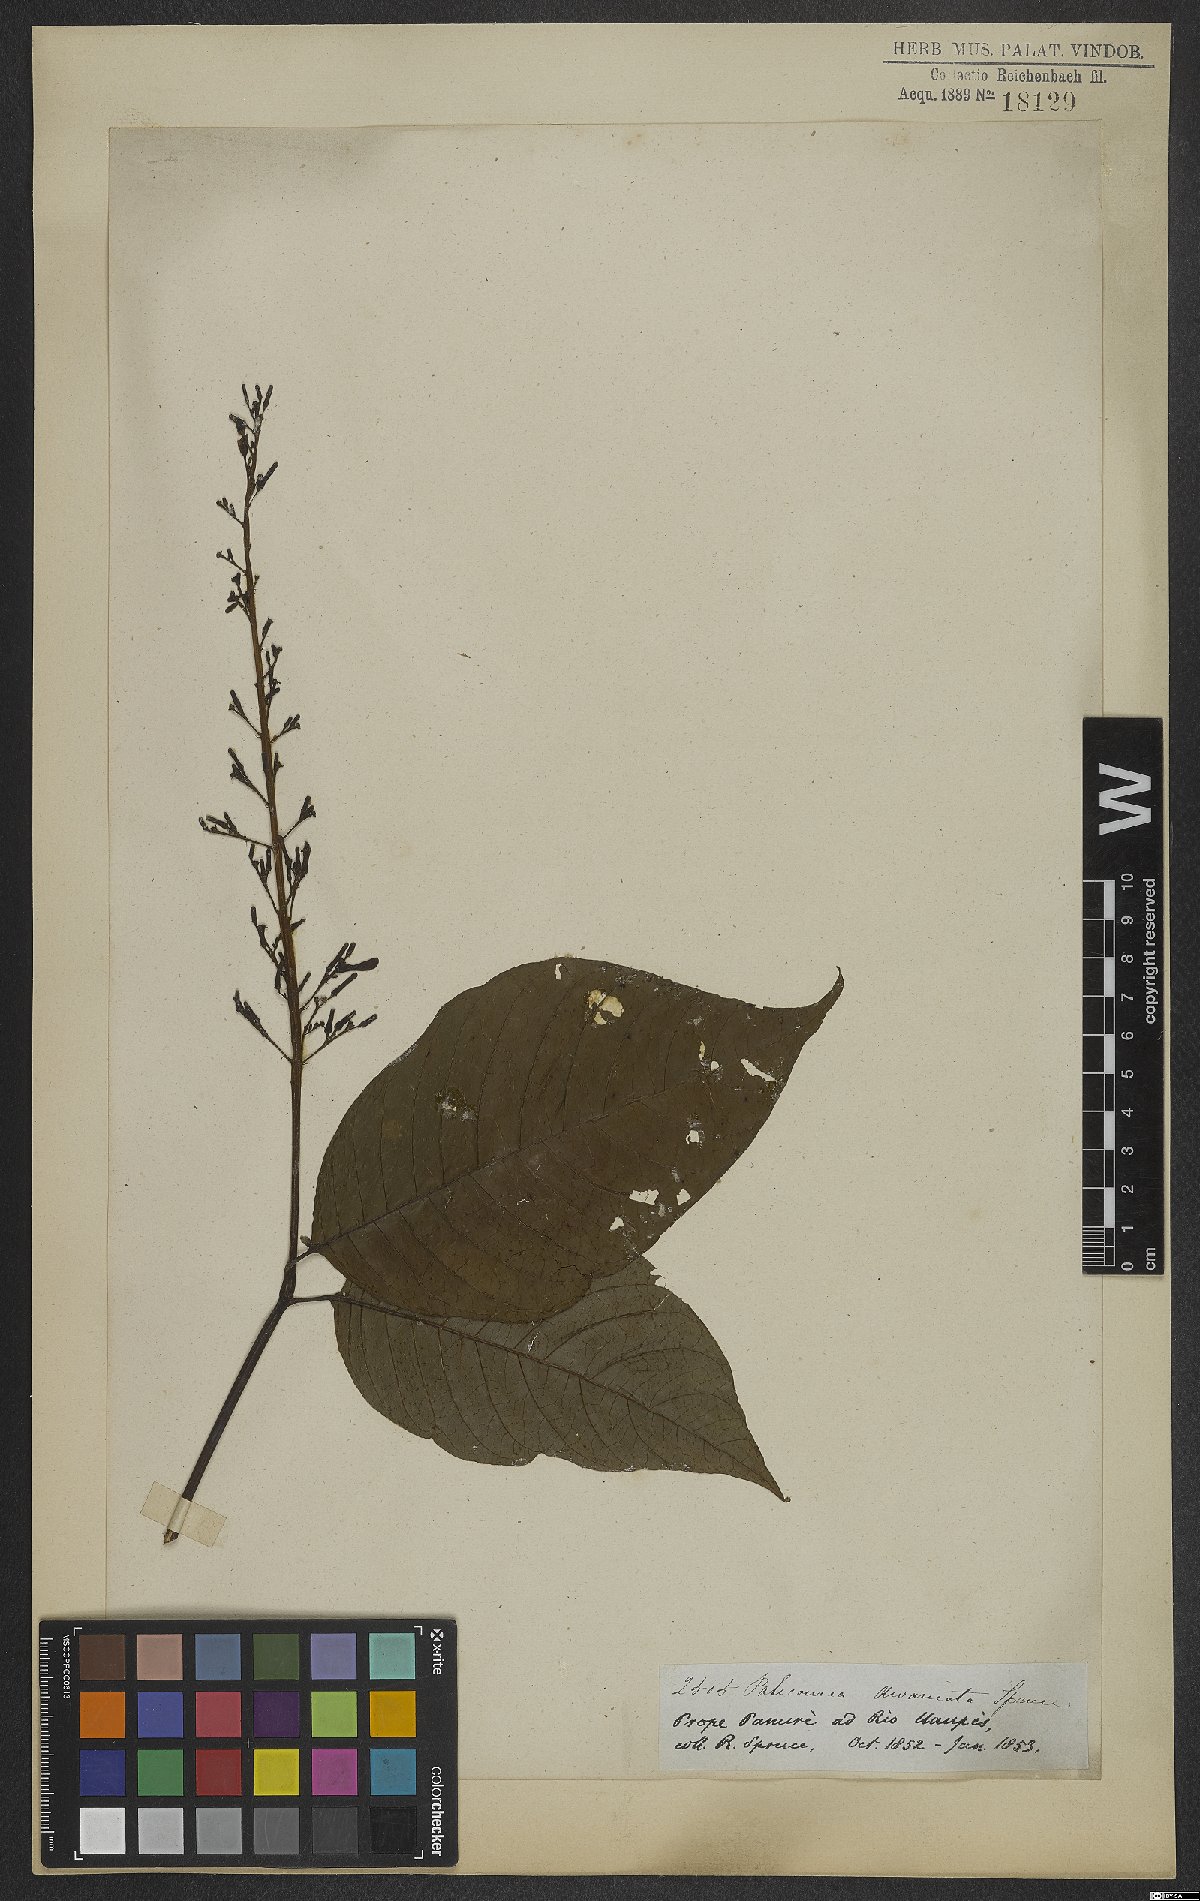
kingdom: Plantae
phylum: Tracheophyta
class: Magnoliopsida
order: Gentianales
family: Rubiaceae
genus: Palicourea
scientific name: Palicourea divaricata
